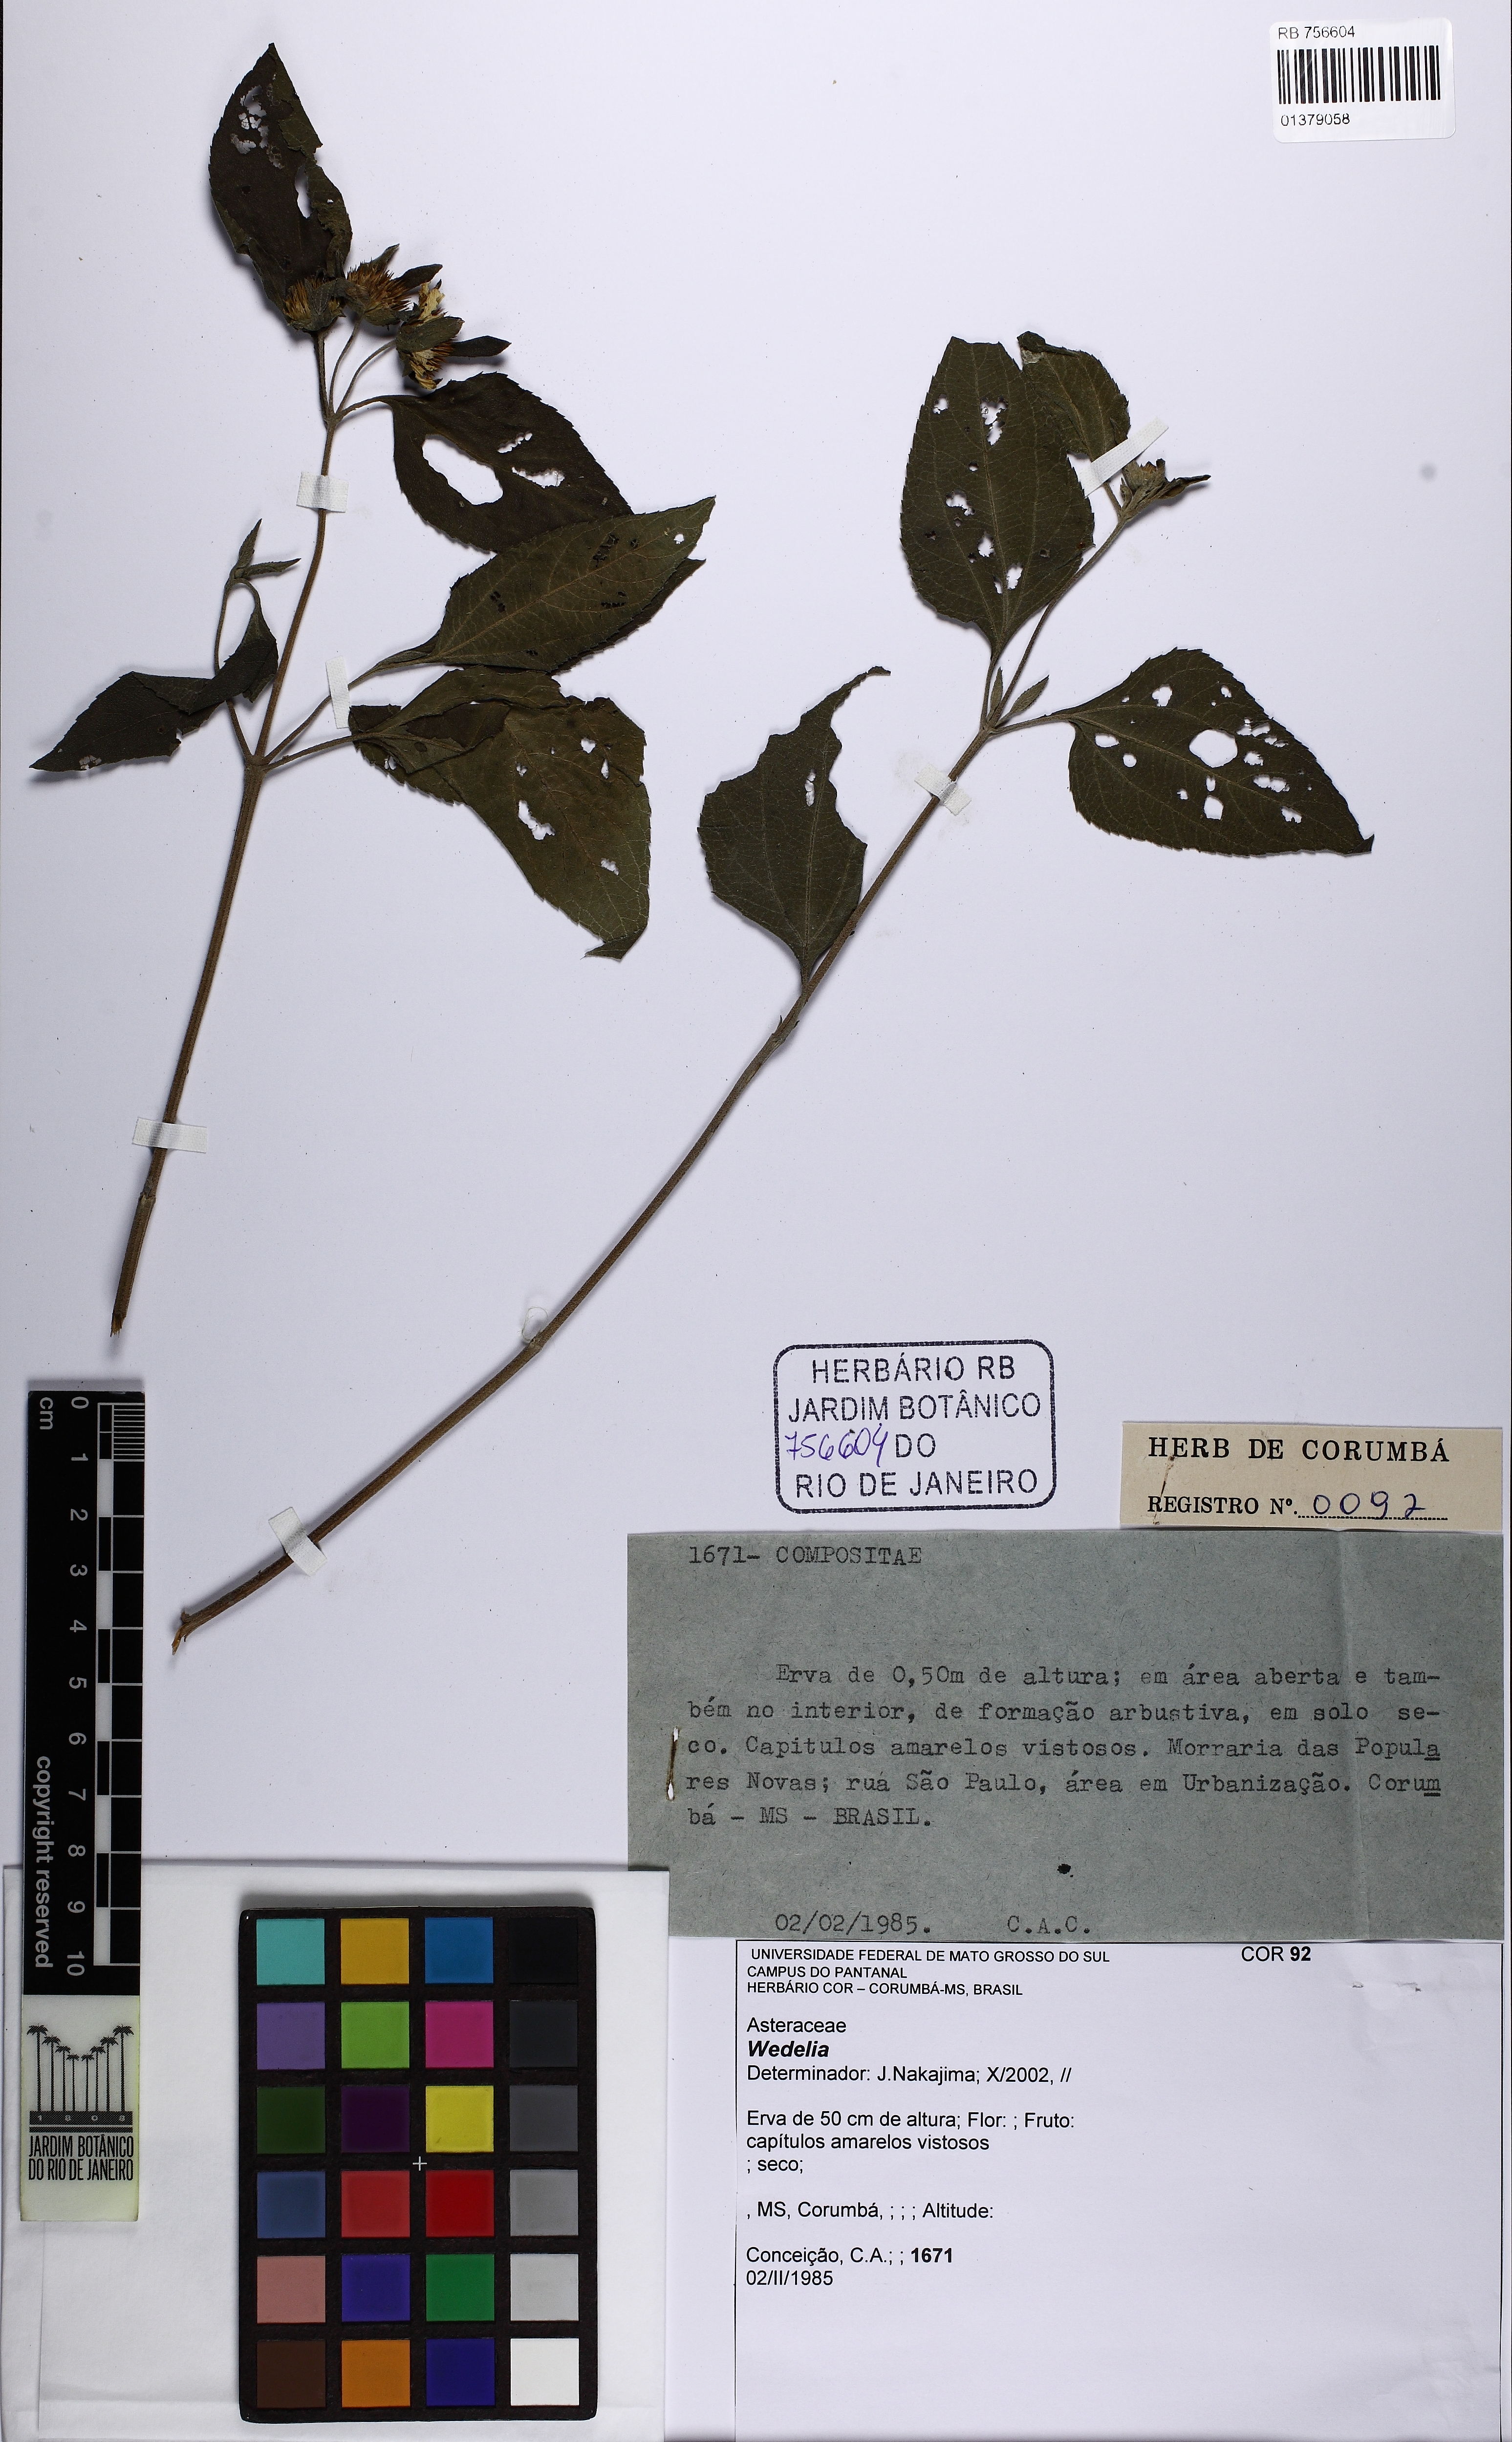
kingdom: Plantae
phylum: Tracheophyta
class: Magnoliopsida
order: Asterales
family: Asteraceae
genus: Wedelia
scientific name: Wedelia
